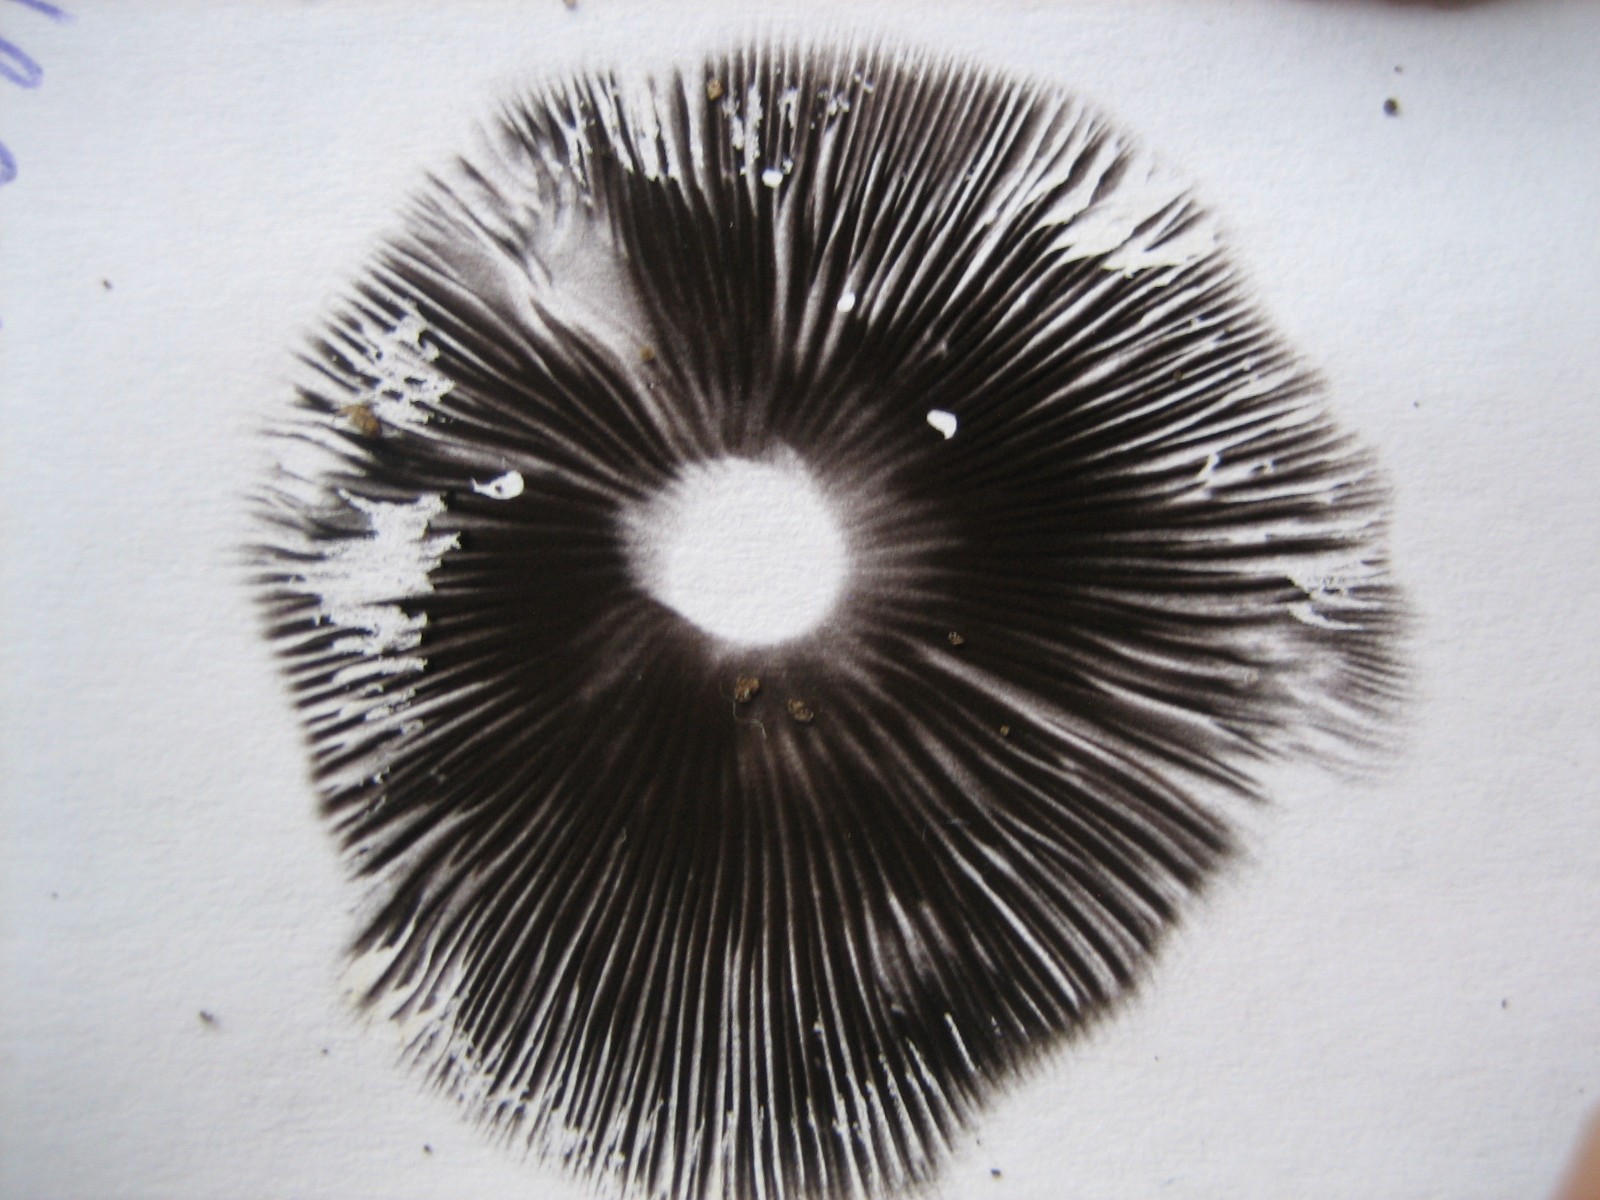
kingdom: Fungi
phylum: Basidiomycota
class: Agaricomycetes
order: Agaricales
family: Psathyrellaceae
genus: Psathyrella
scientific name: Psathyrella fusca
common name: gråbladet mørkhat
